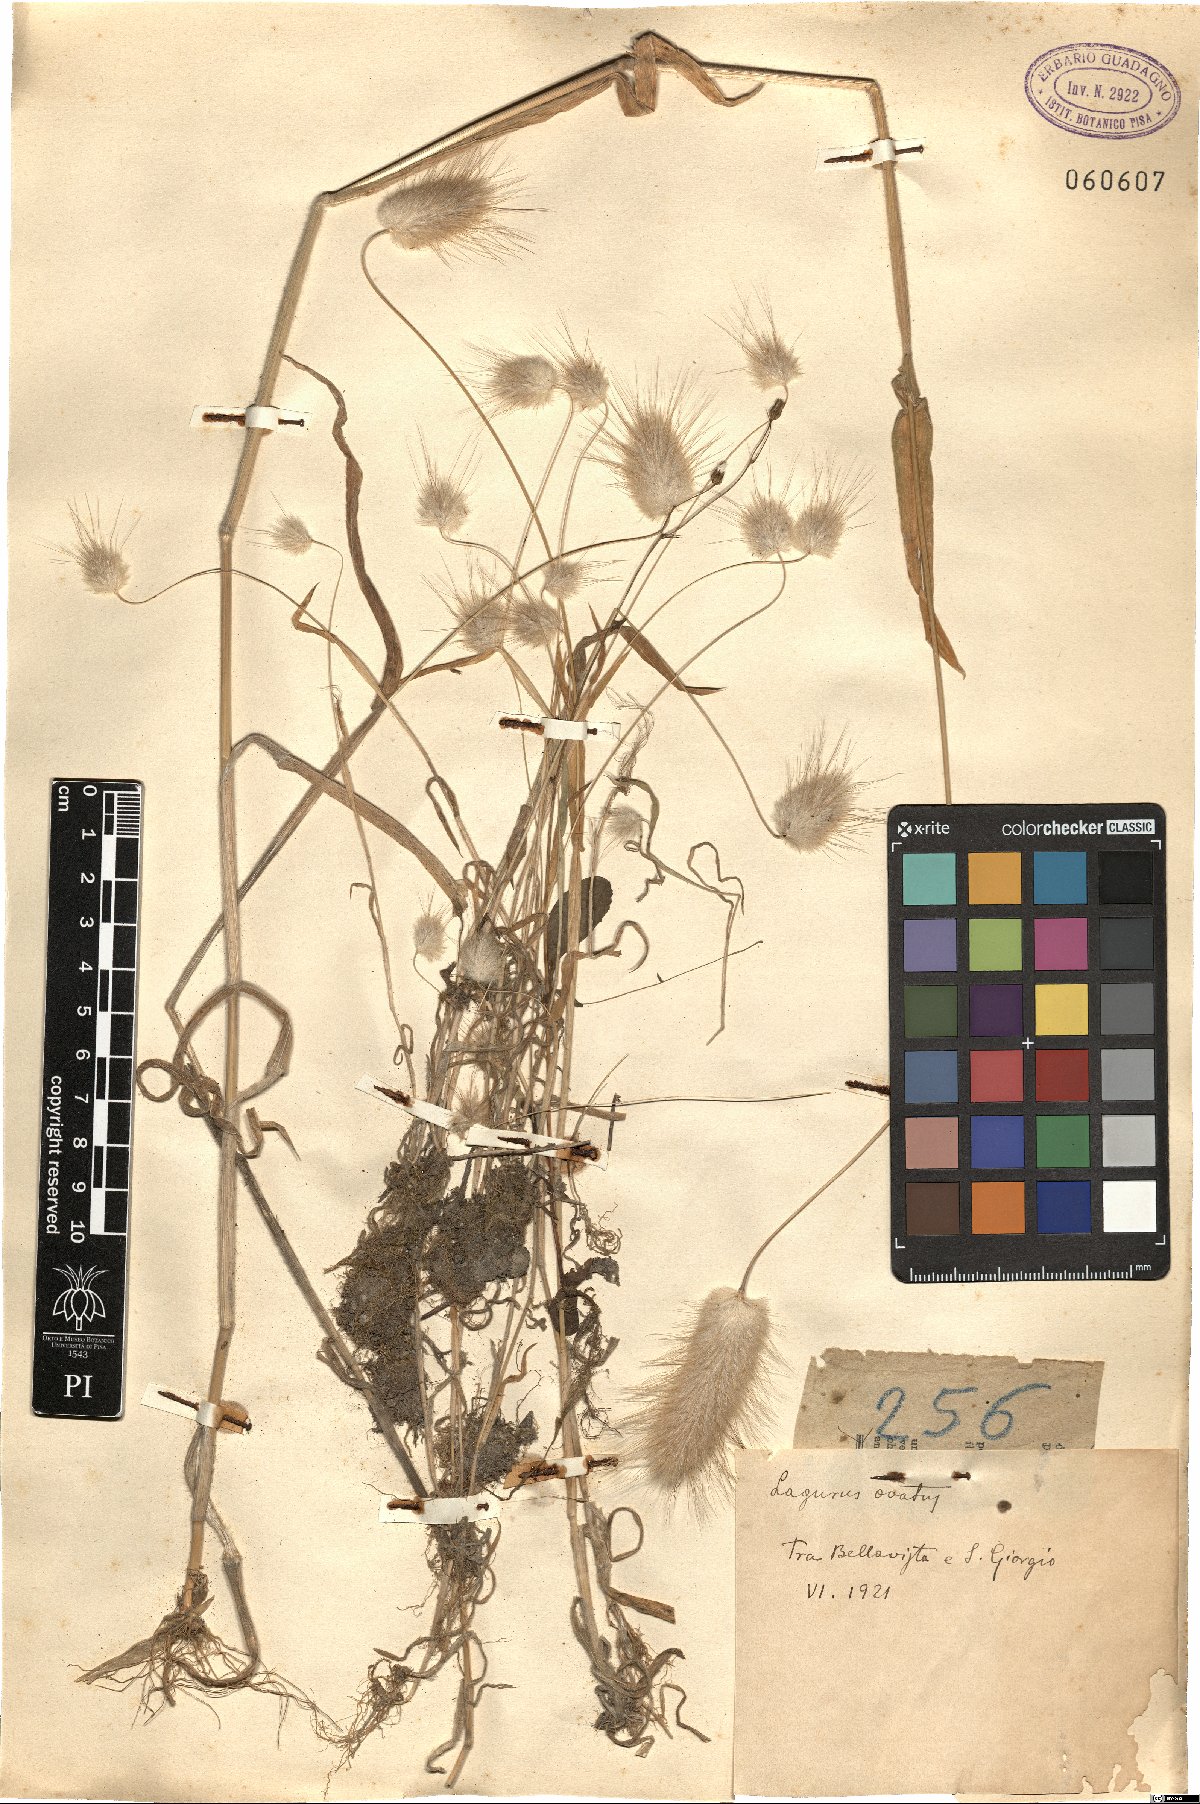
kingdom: Plantae
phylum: Tracheophyta
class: Liliopsida
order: Poales
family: Poaceae
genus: Lagurus
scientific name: Lagurus ovatus
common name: Hare's-tail
